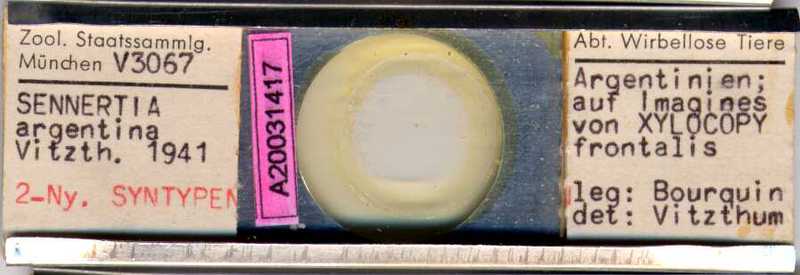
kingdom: Animalia
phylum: Arthropoda
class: Arachnida
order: Sarcoptiformes
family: Chaetodactylidae
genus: Sennertia
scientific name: Sennertia argentina
